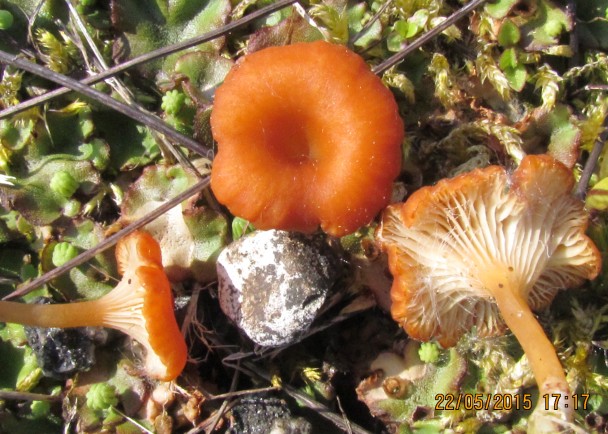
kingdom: Fungi
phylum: Basidiomycota
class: Agaricomycetes
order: Hymenochaetales
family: Rickenellaceae
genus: Loreleia
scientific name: Loreleia marchantiae
